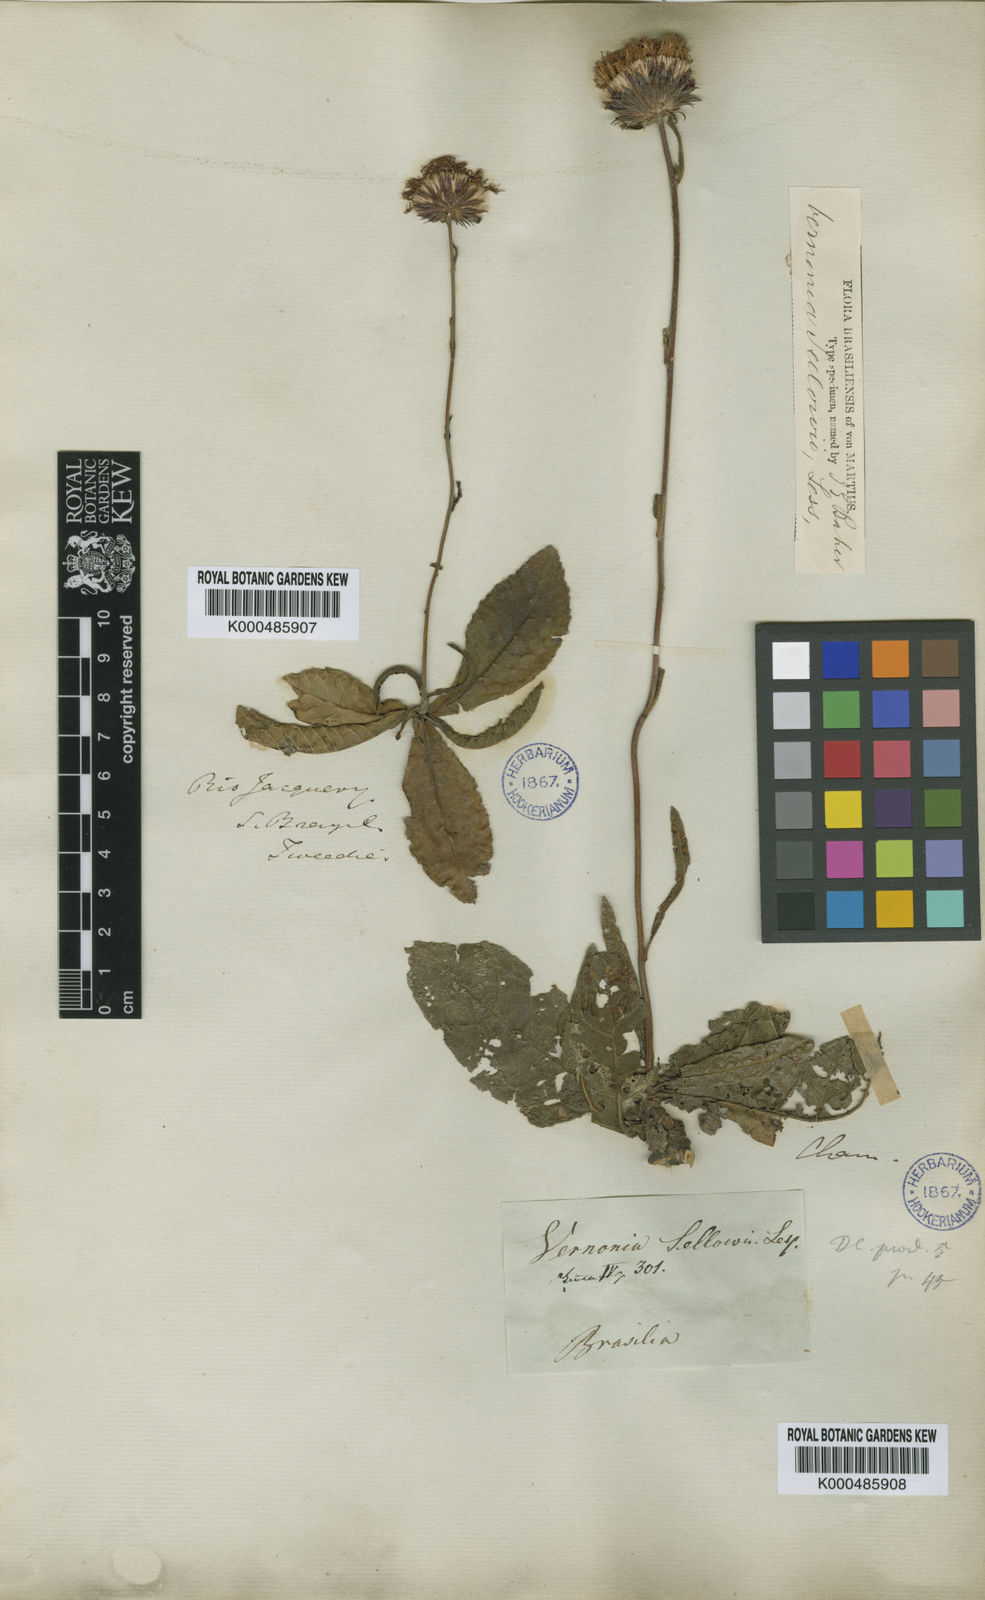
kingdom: Plantae
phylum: Tracheophyta
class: Magnoliopsida
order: Asterales
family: Asteraceae
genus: Lessingianthus
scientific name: Lessingianthus sellowii
